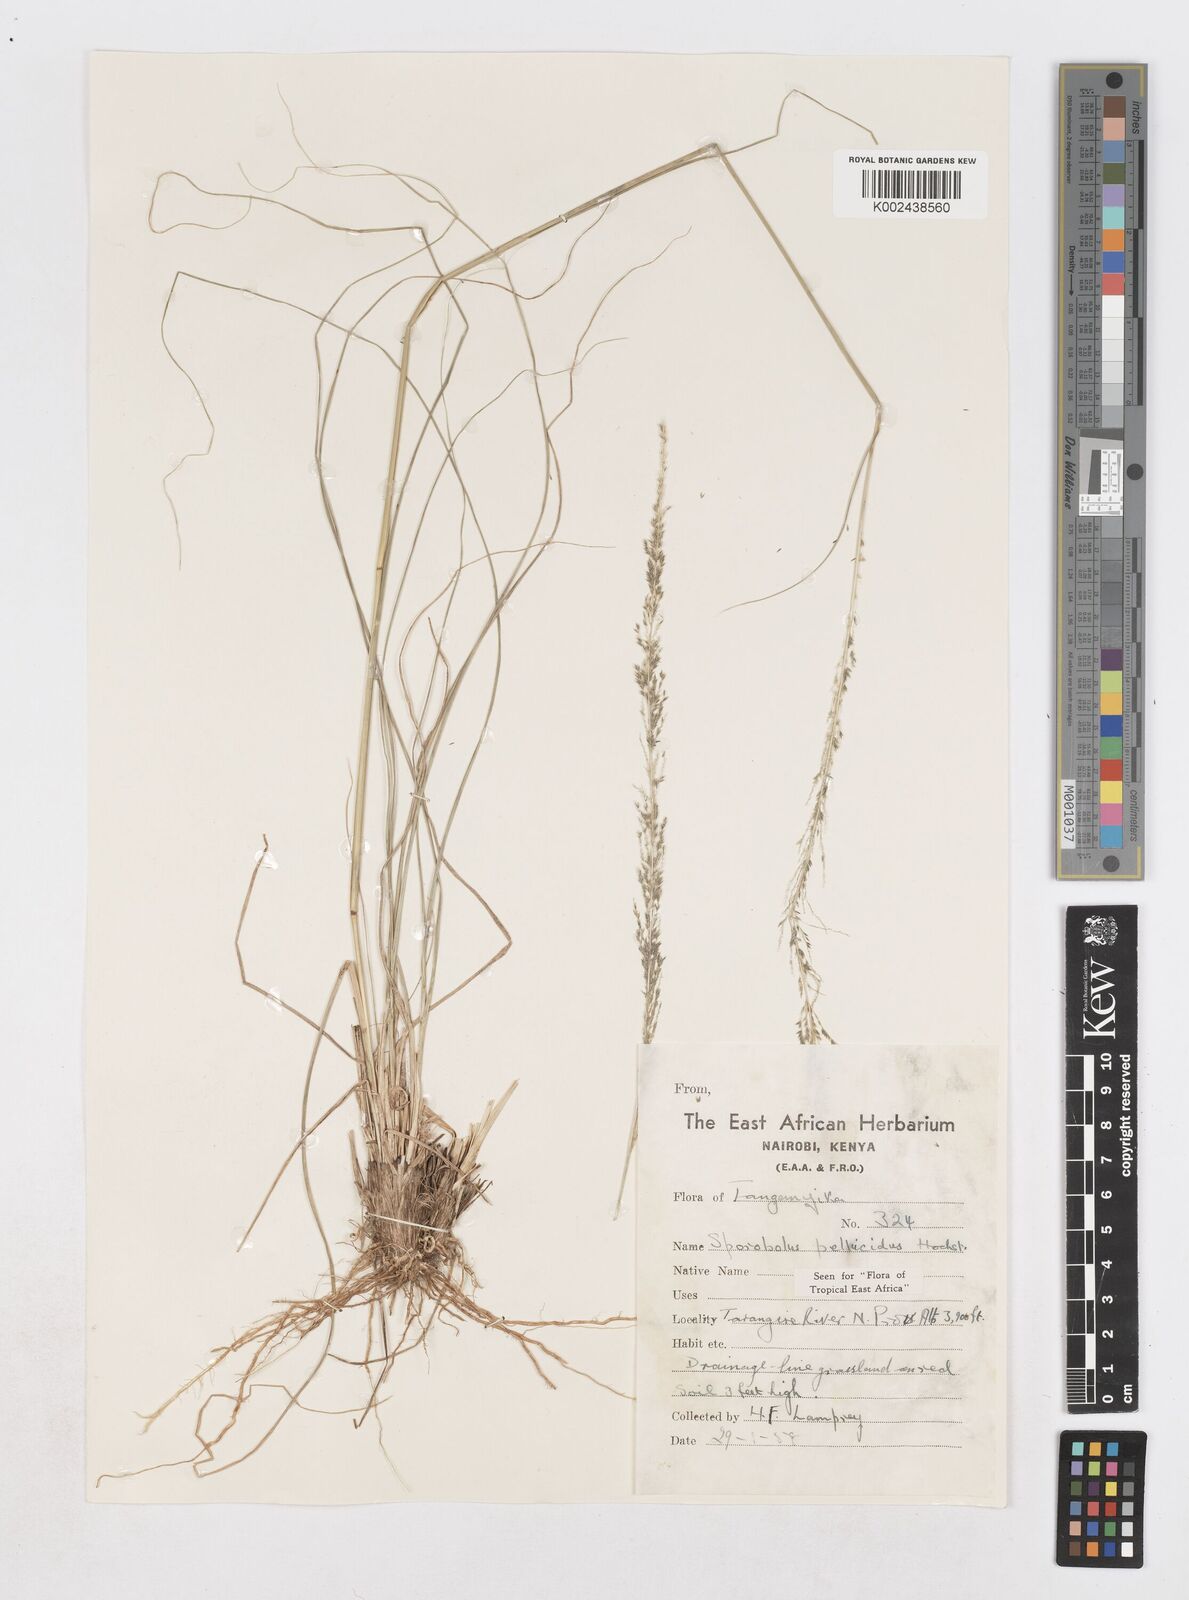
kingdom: Plantae
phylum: Tracheophyta
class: Liliopsida
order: Poales
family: Poaceae
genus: Sporobolus
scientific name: Sporobolus pellucidus
